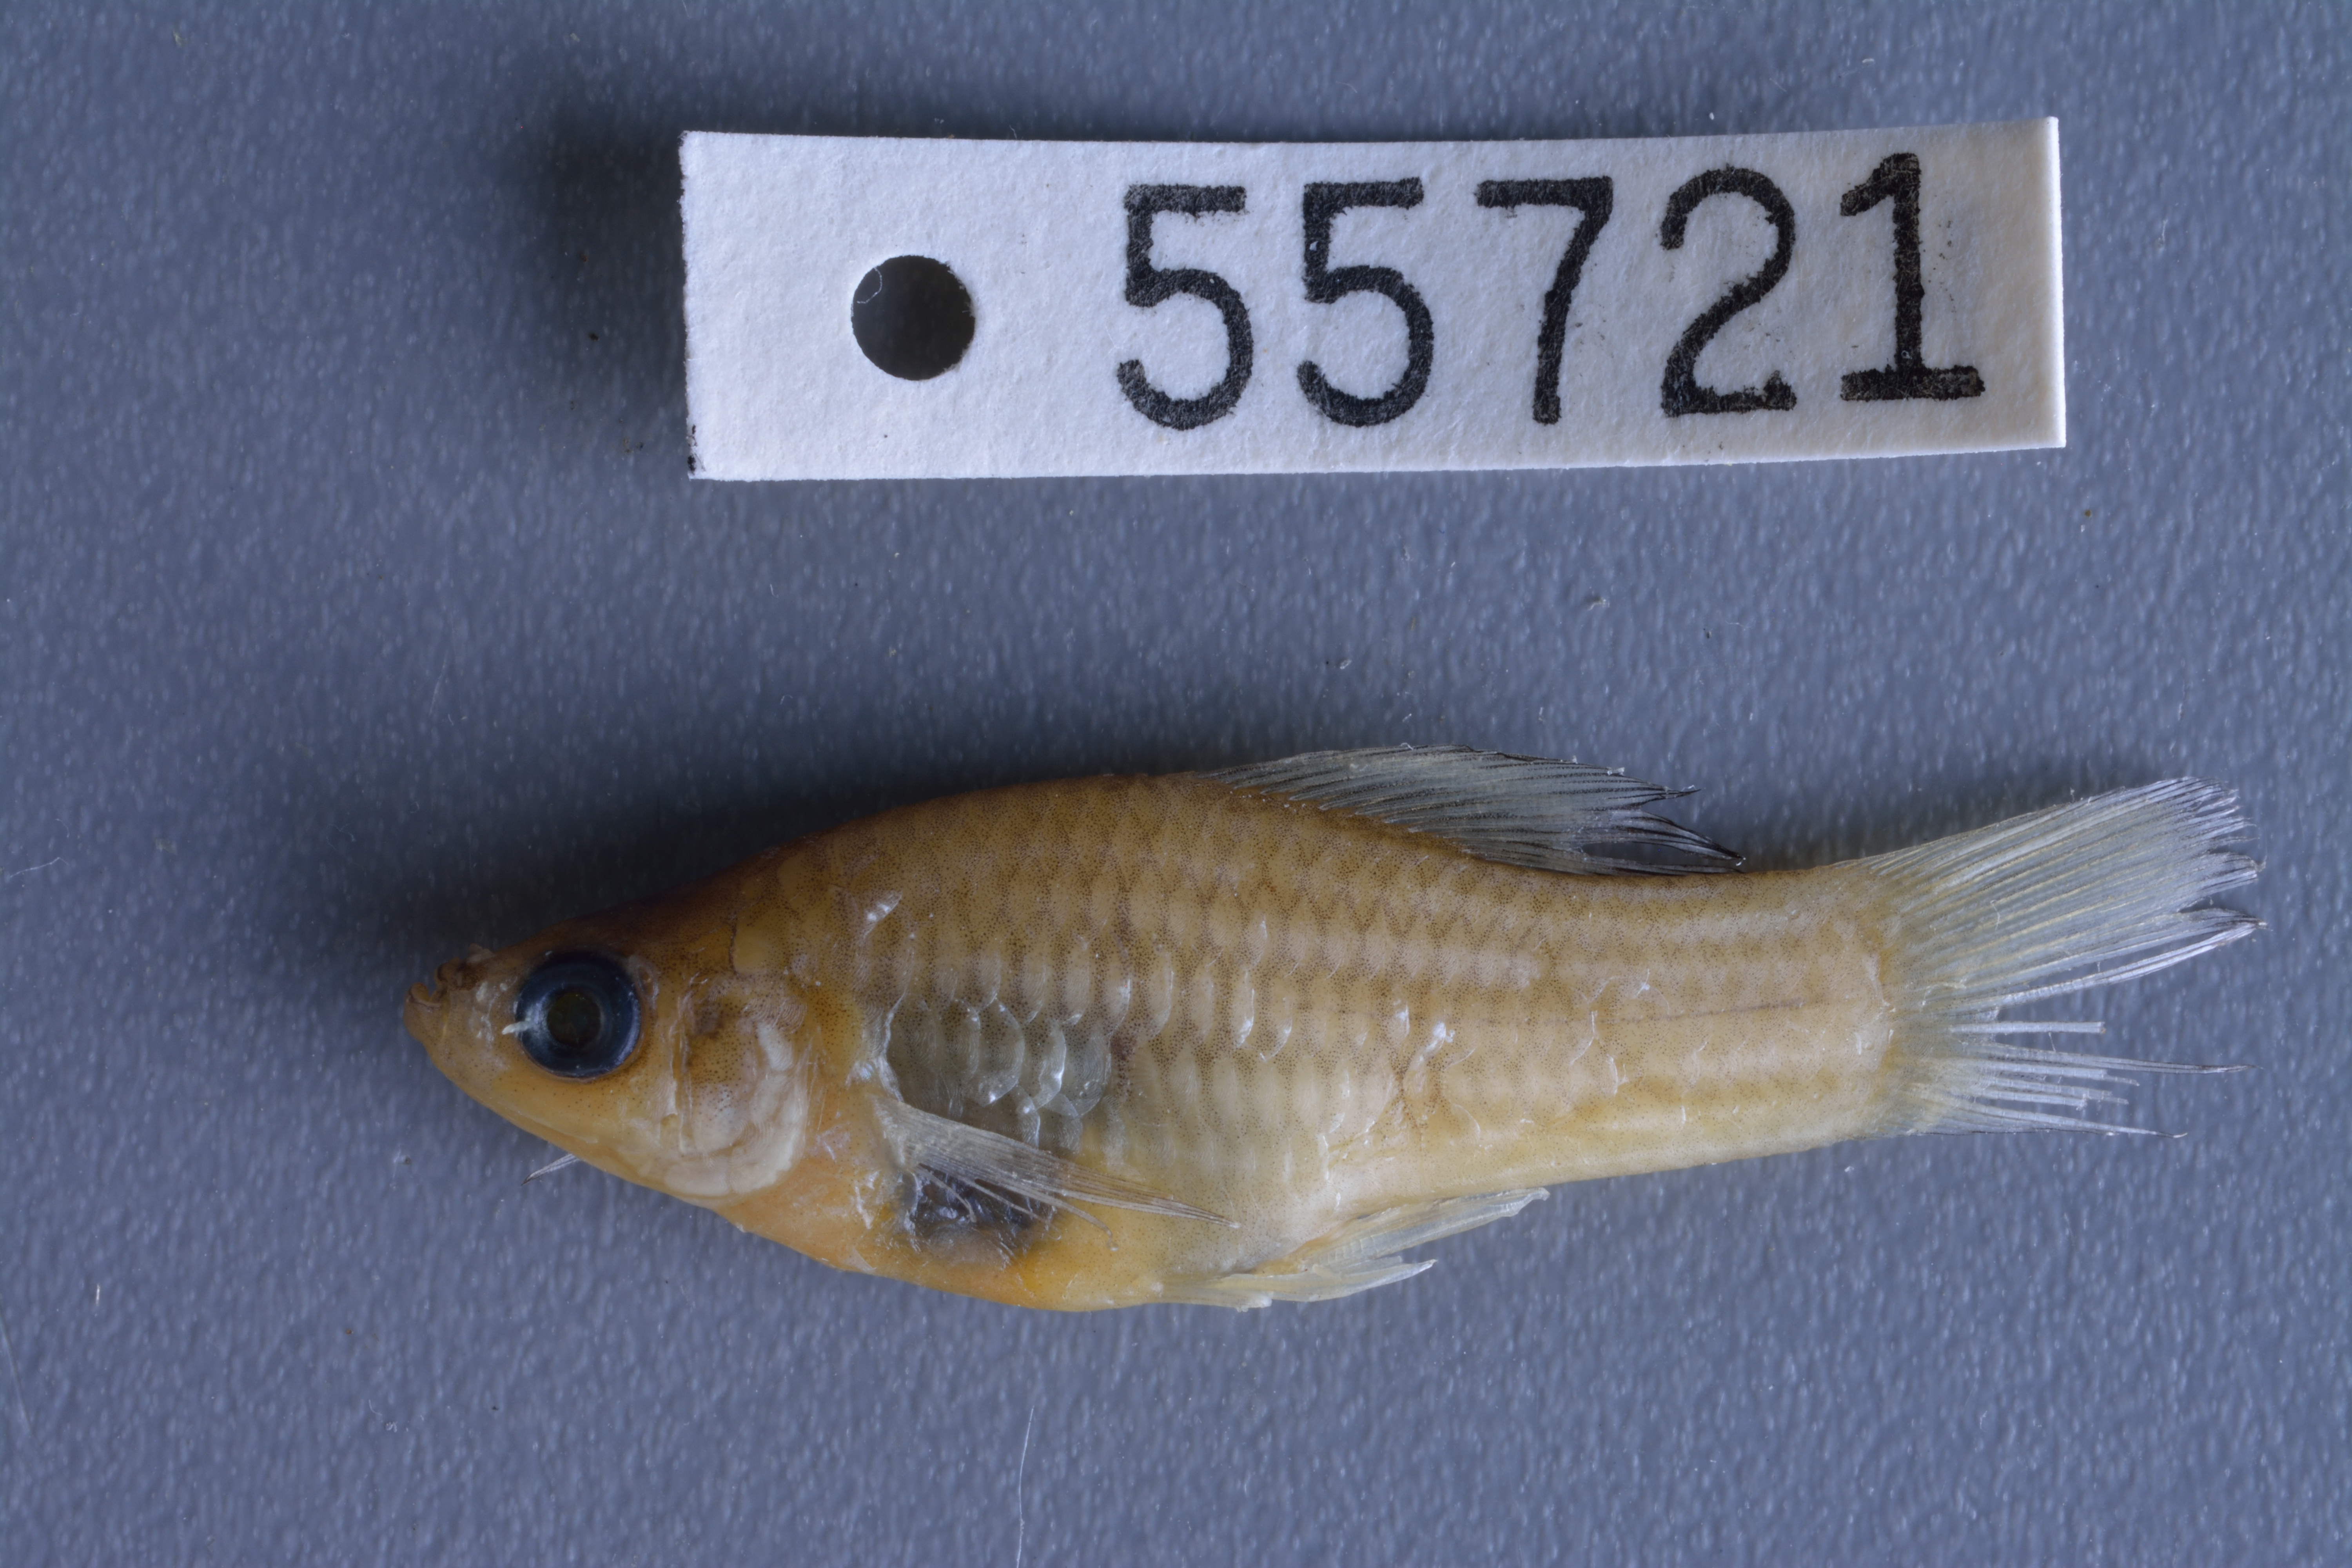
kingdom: Animalia
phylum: Chordata
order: Cyprinodontiformes
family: Poeciliidae
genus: Xiphophorus
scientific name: Xiphophorus variatus
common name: Variable platyfish
